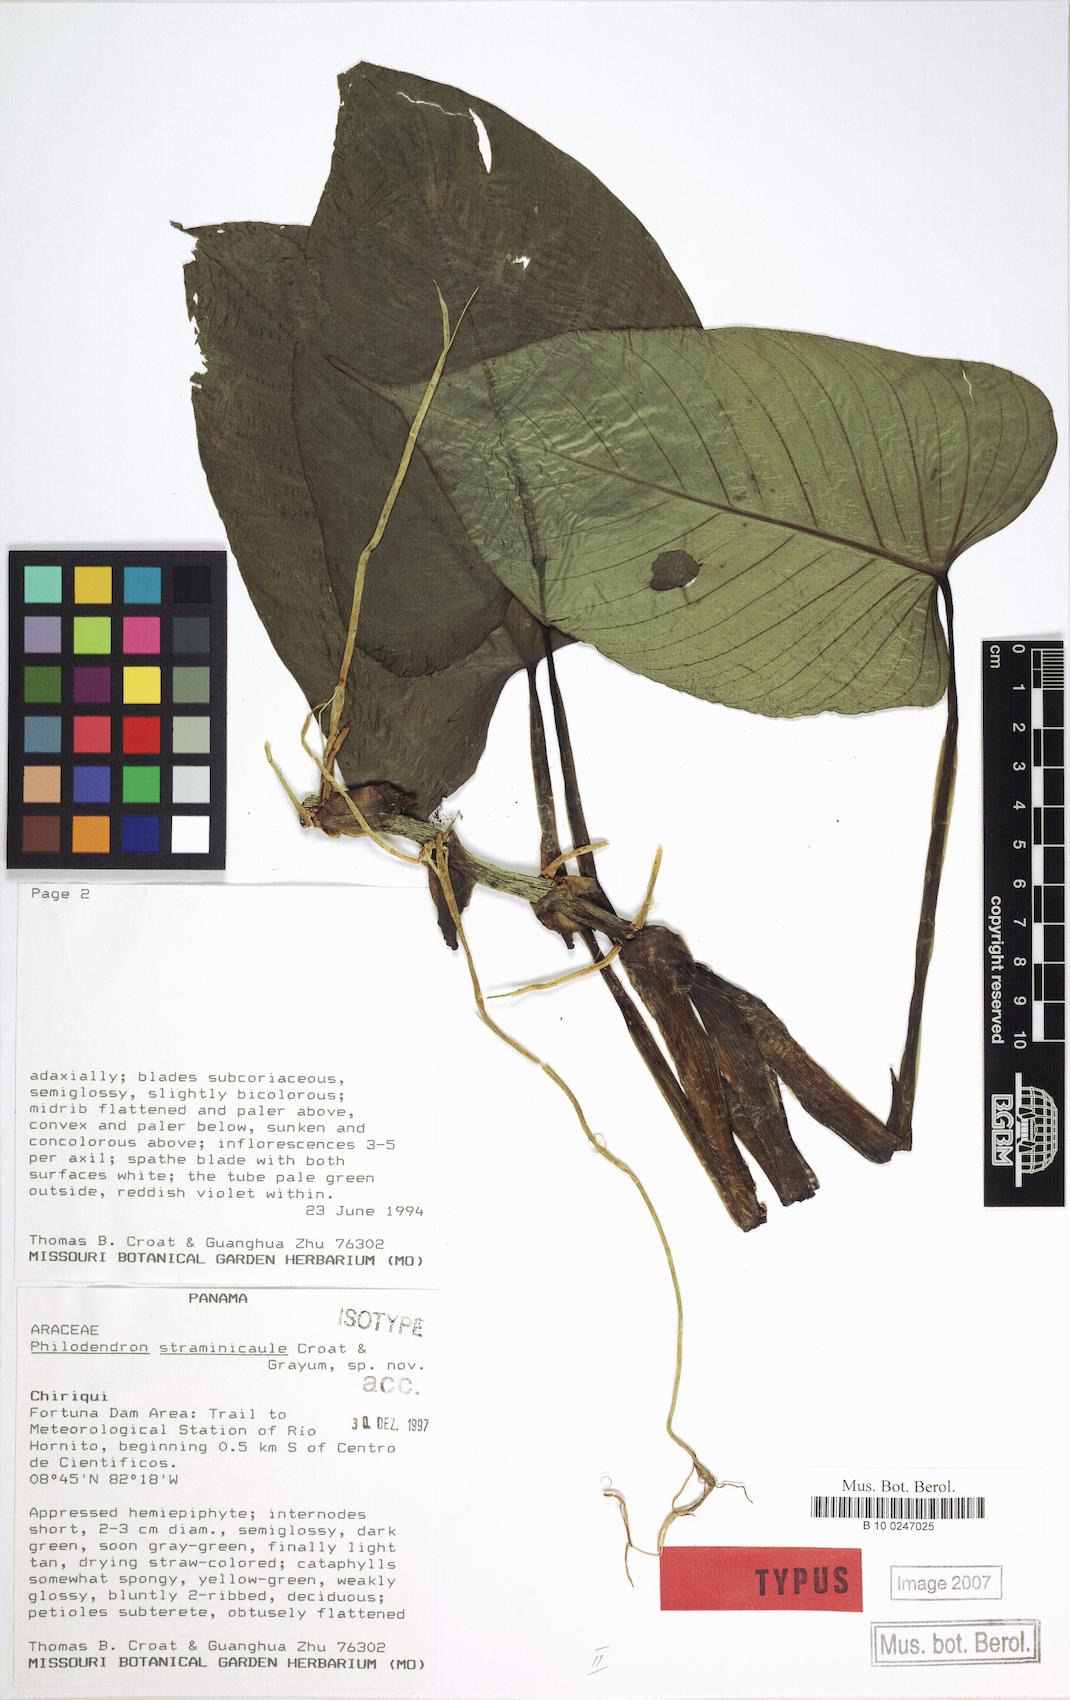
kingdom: Plantae
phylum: Tracheophyta
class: Liliopsida
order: Alismatales
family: Araceae
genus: Philodendron
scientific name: Philodendron straminicaule
